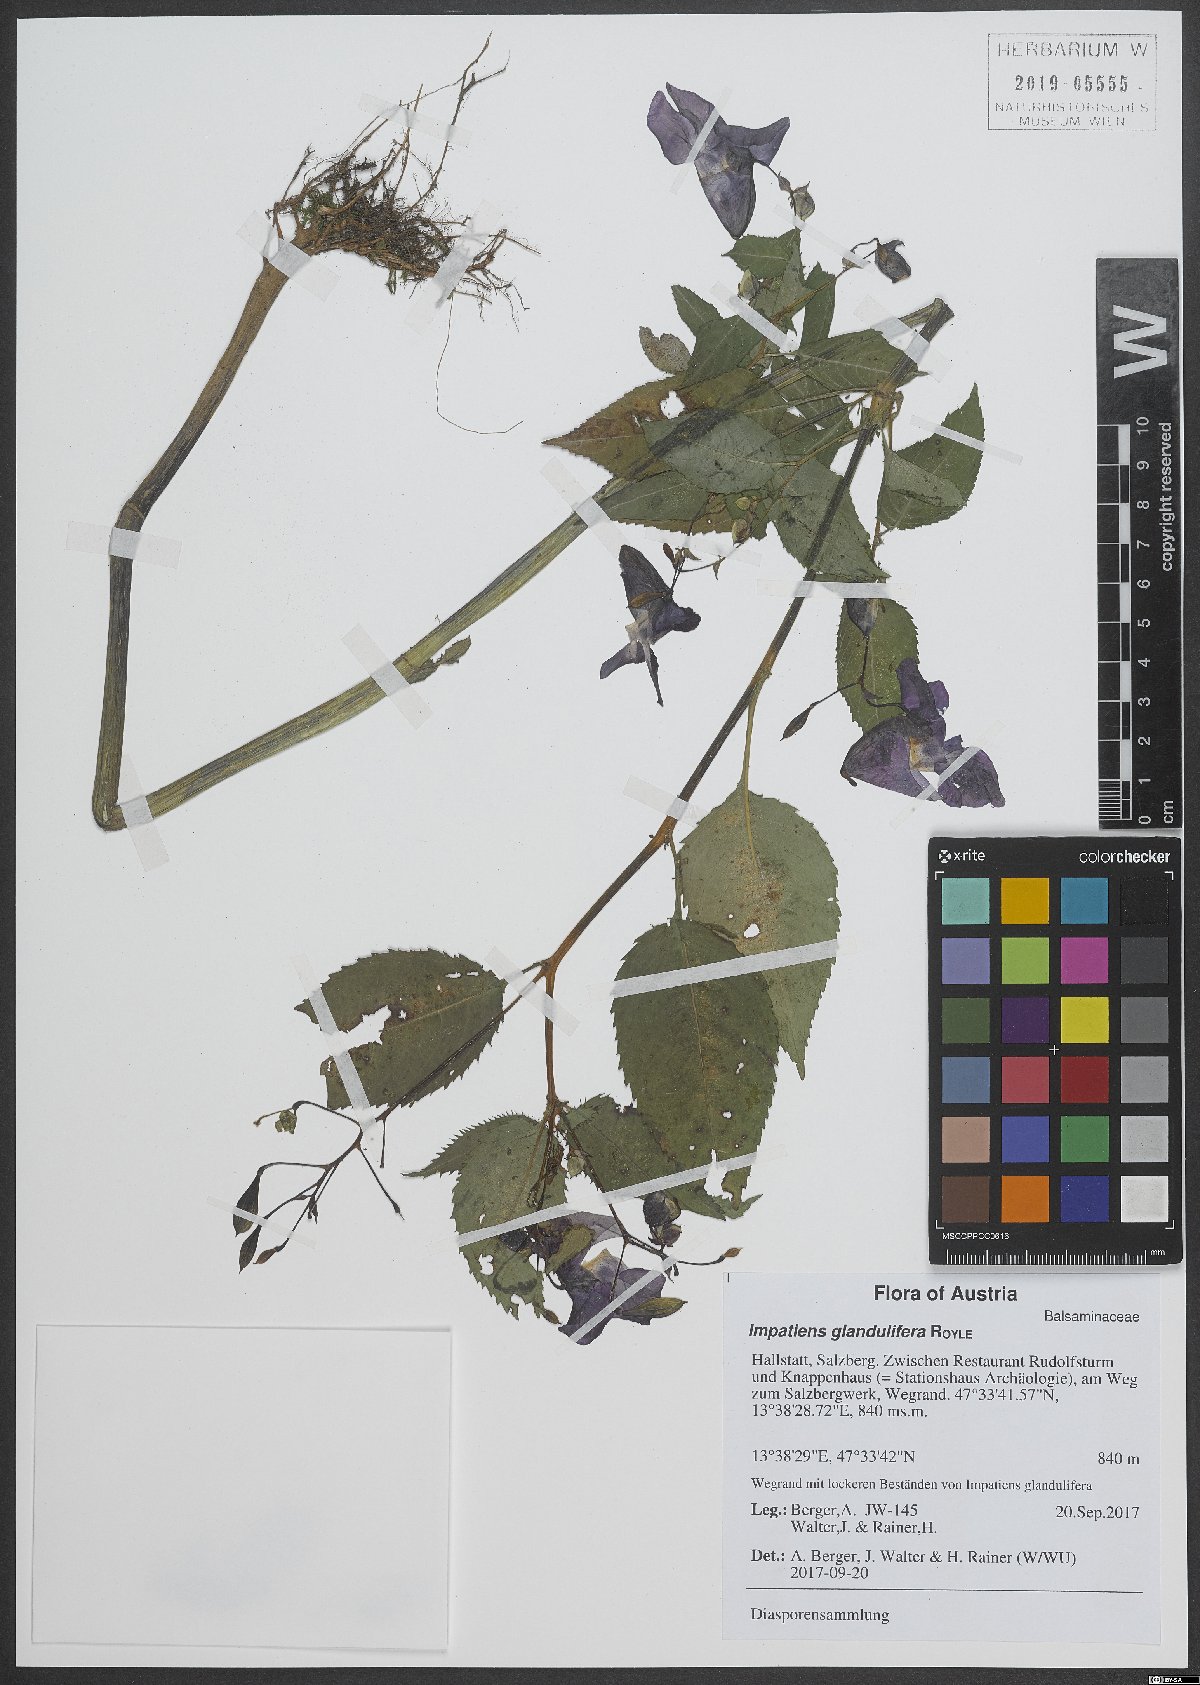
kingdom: Plantae
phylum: Tracheophyta
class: Magnoliopsida
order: Ericales
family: Balsaminaceae
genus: Impatiens
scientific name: Impatiens glandulifera
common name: Himalayan balsam
